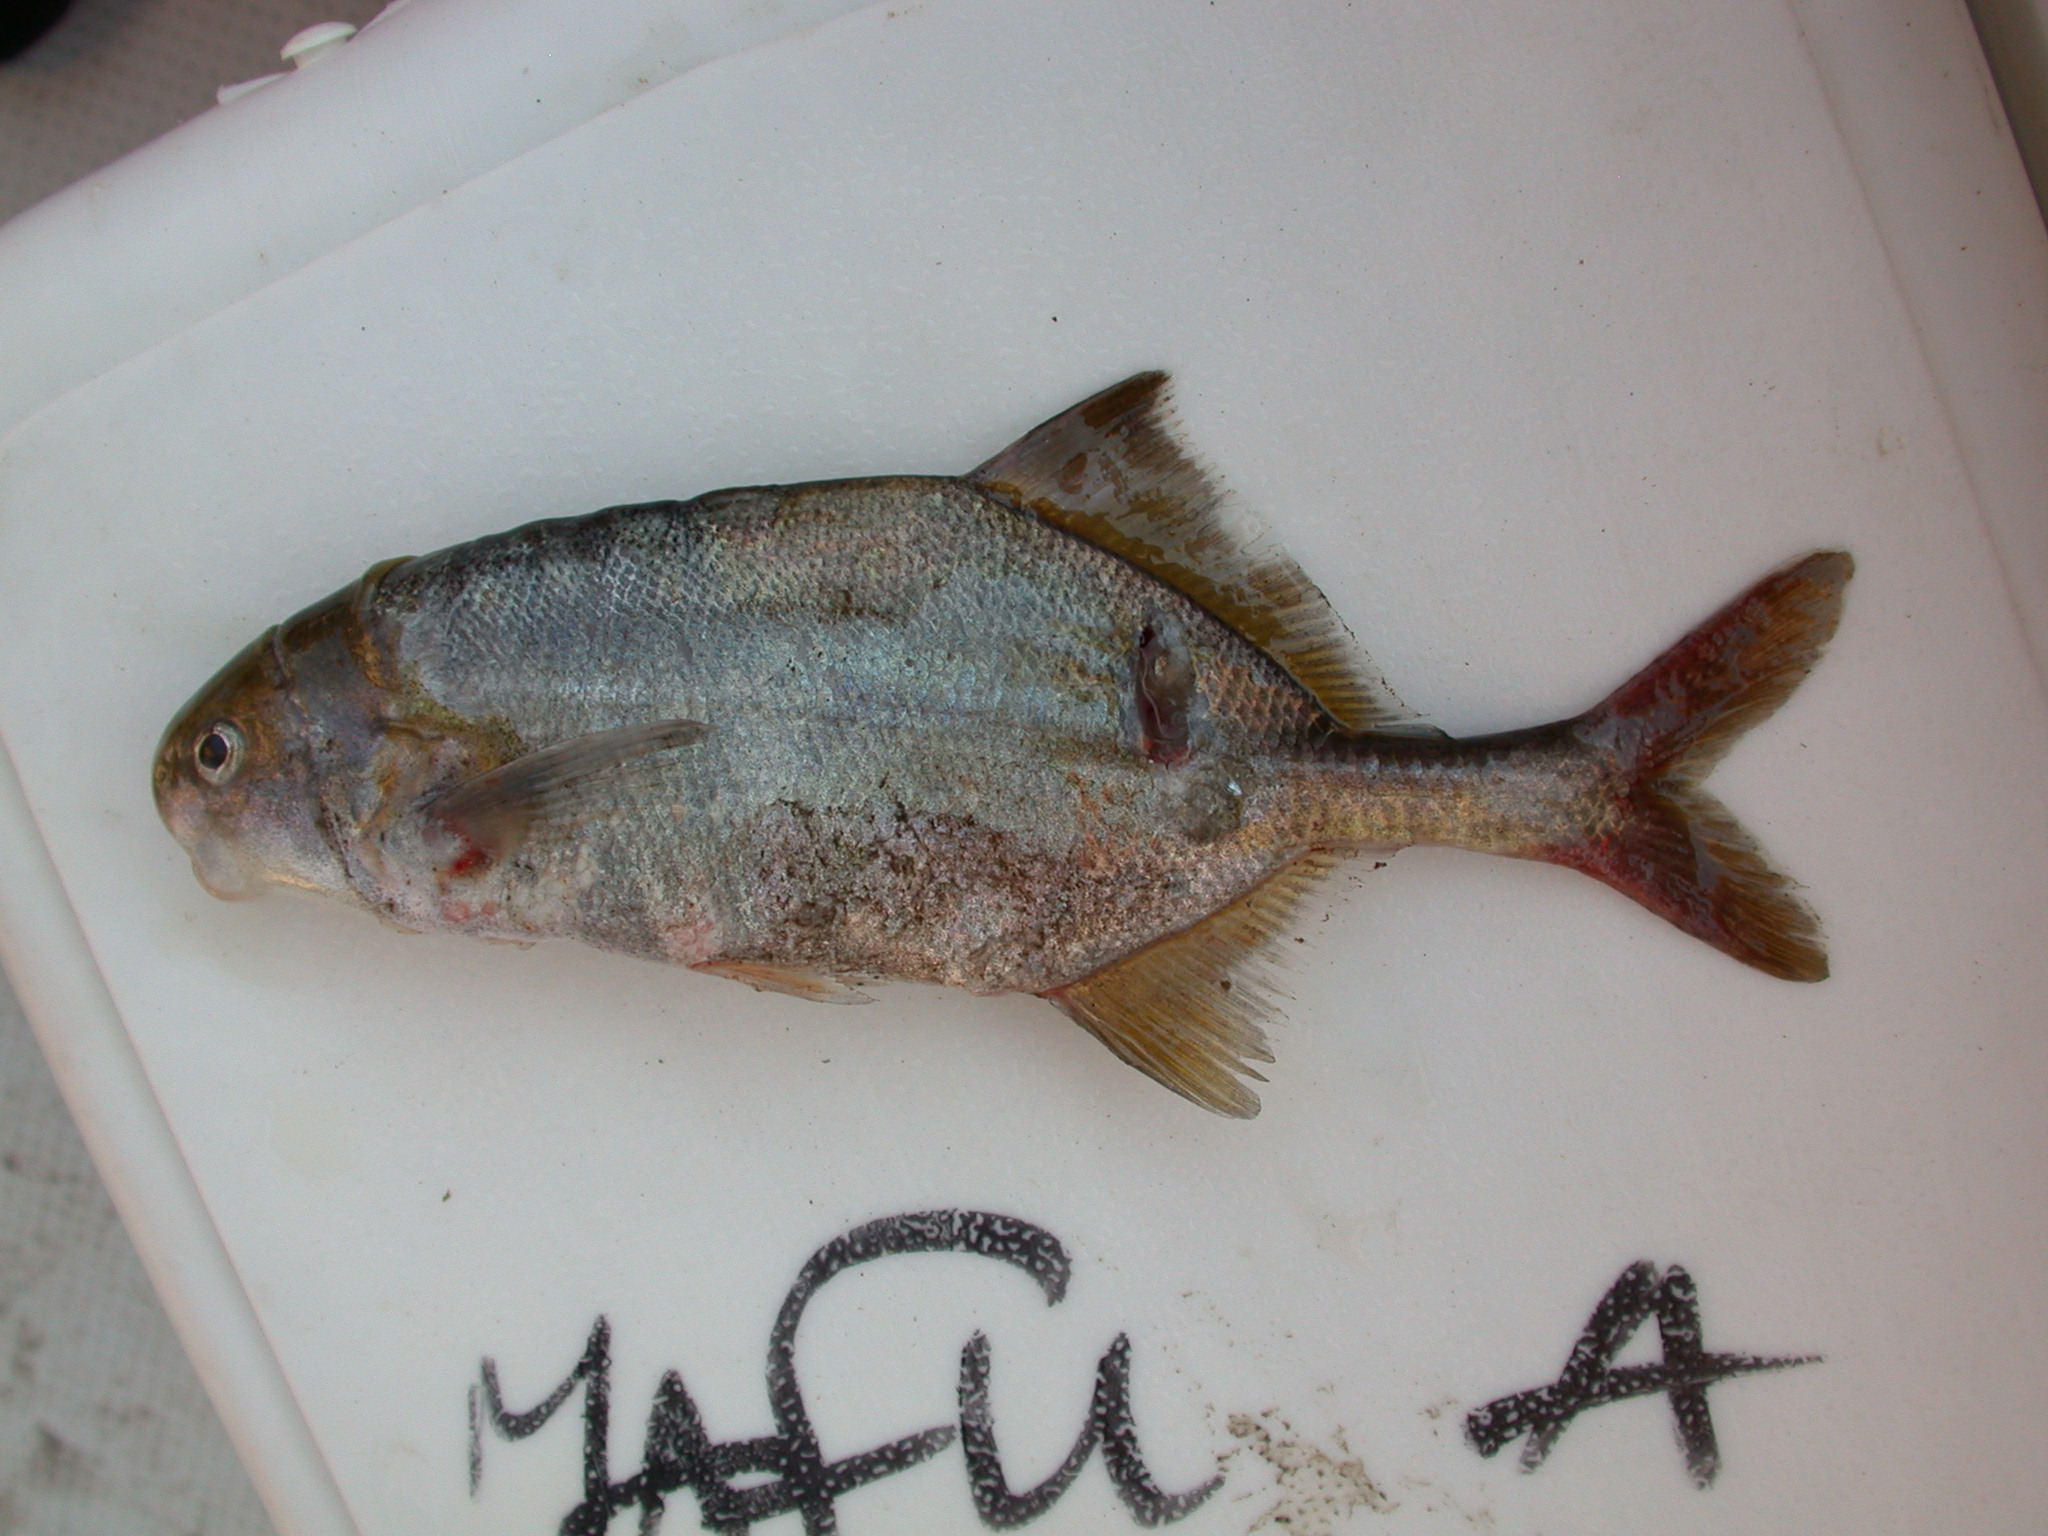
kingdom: Animalia
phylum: Chordata
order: Osteoglossiformes
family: Mormyridae
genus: Cyphomyrus
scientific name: Cyphomyrus discorhynchus
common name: Zambezi parrotfish
